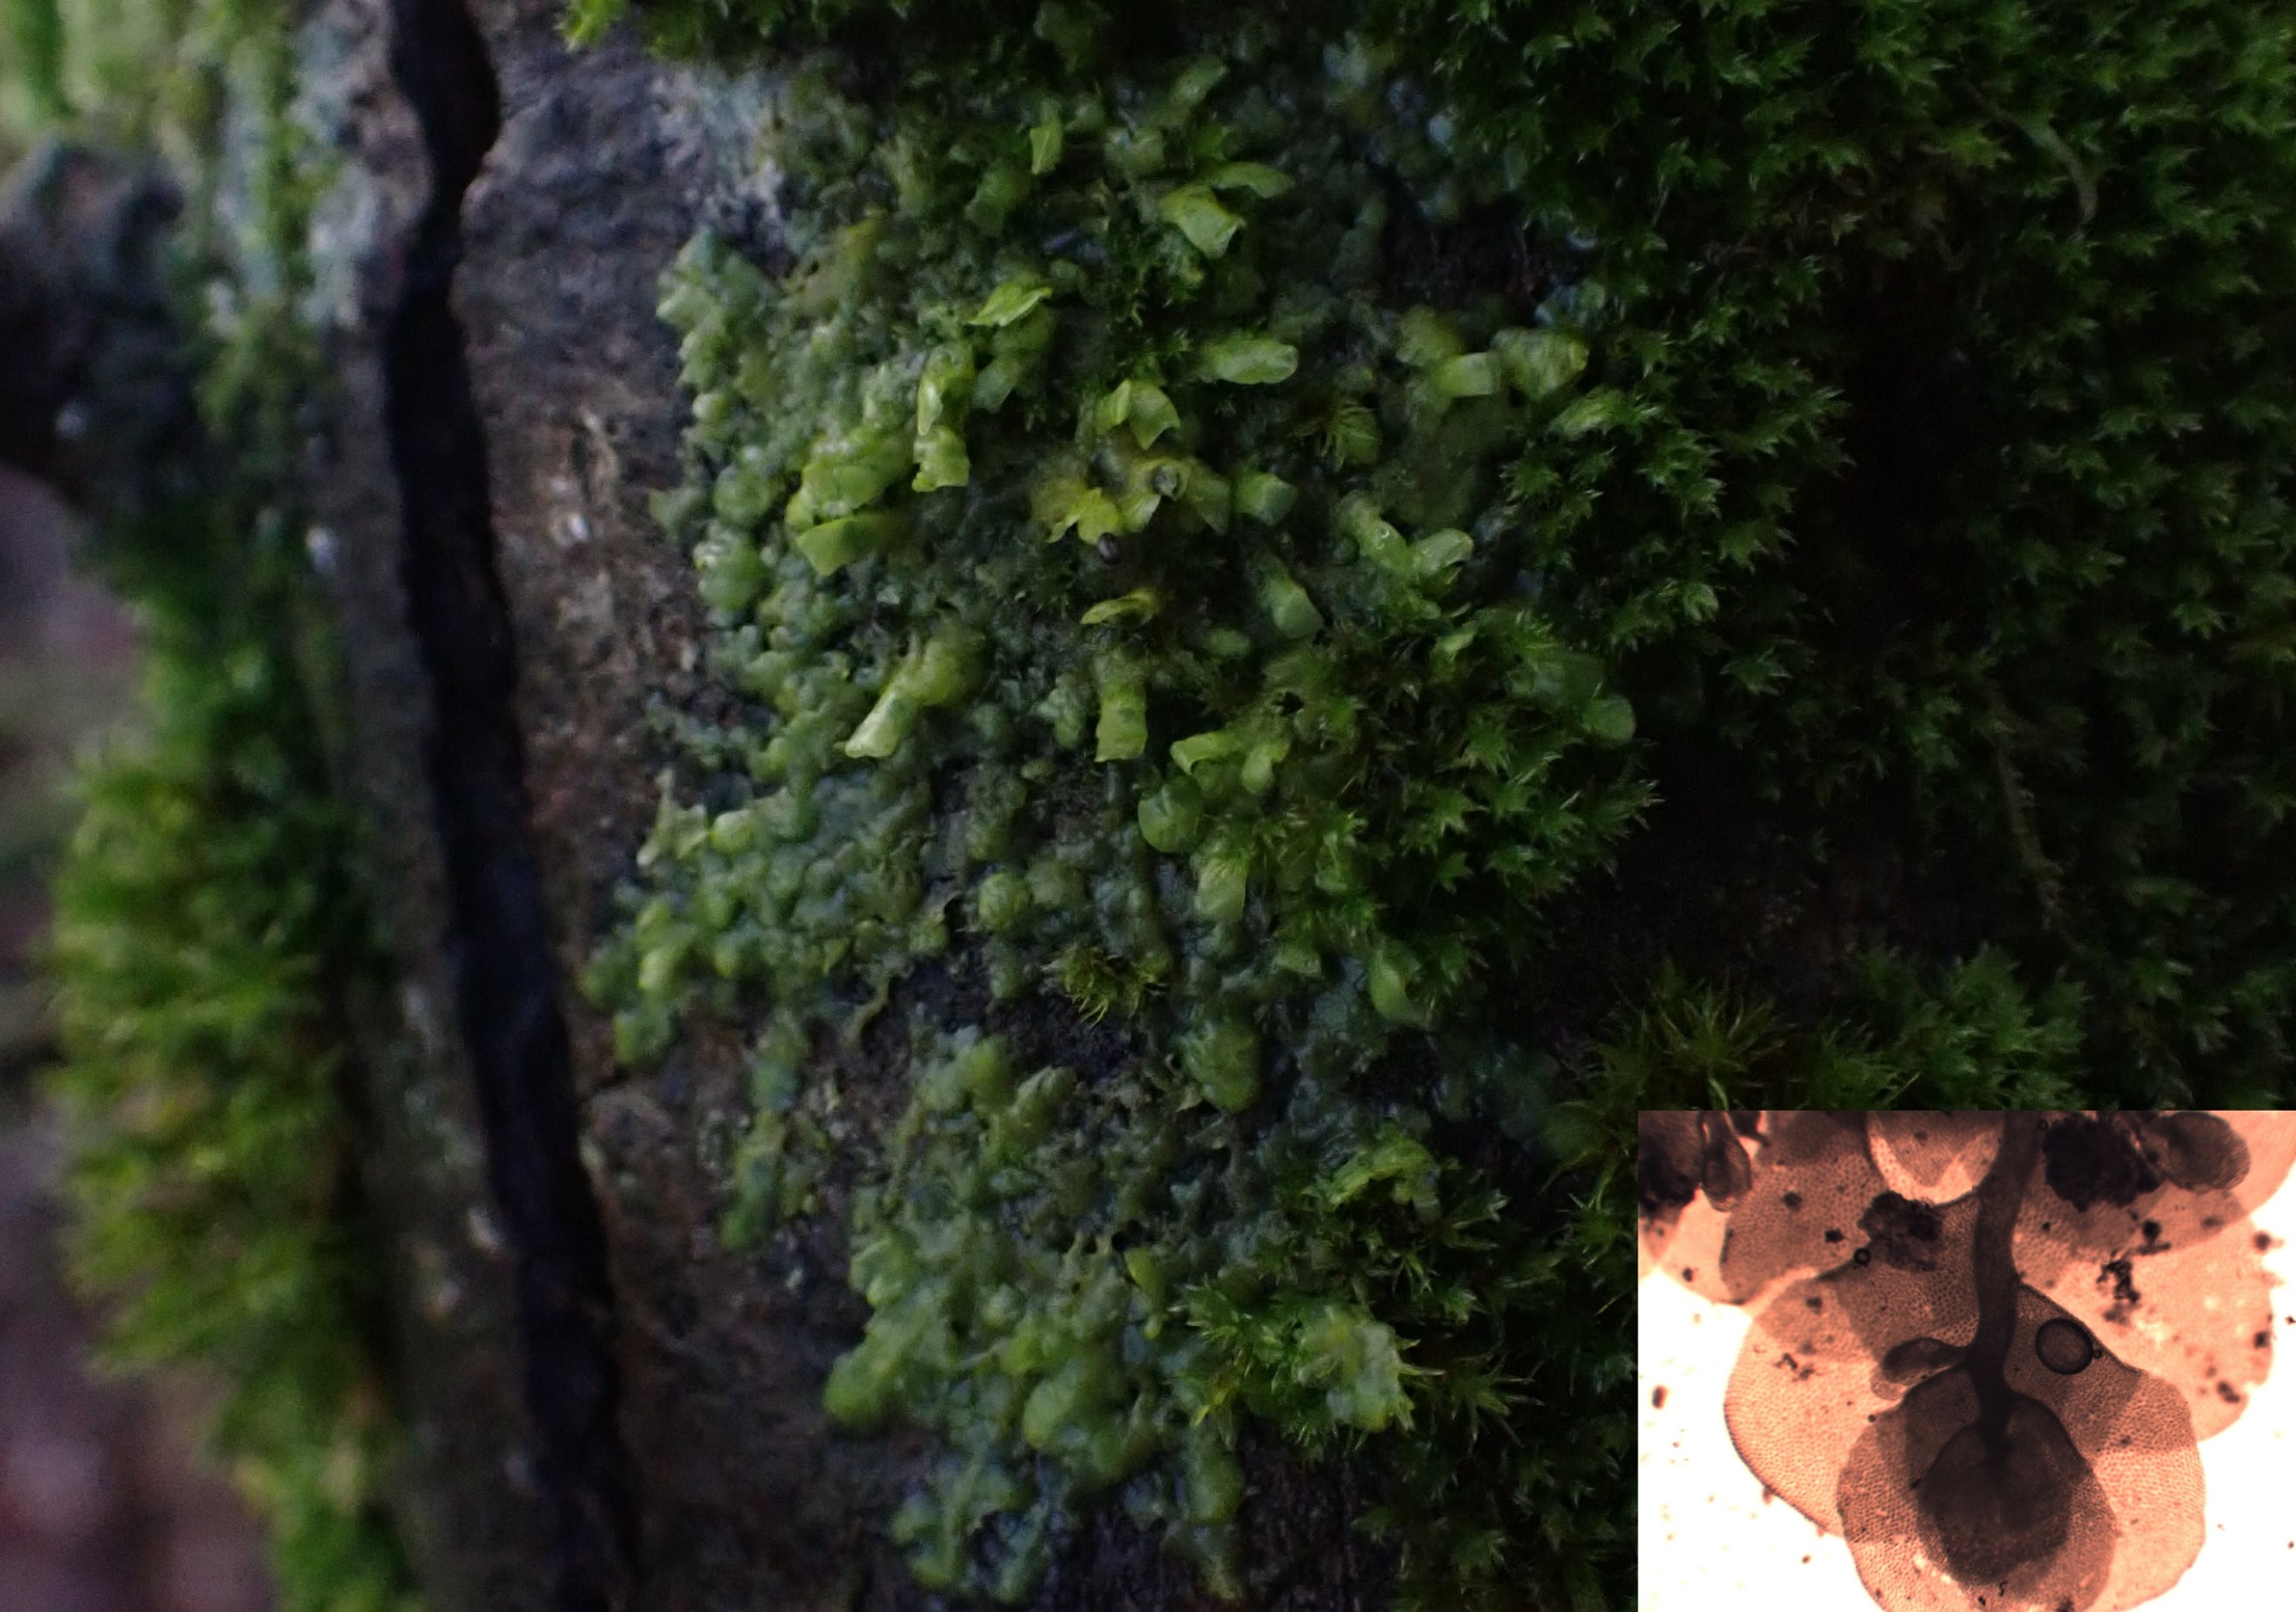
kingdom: Plantae
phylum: Marchantiophyta
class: Jungermanniopsida
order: Porellales
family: Radulaceae
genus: Radula
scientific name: Radula complanata
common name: Almindelig spartelmos
